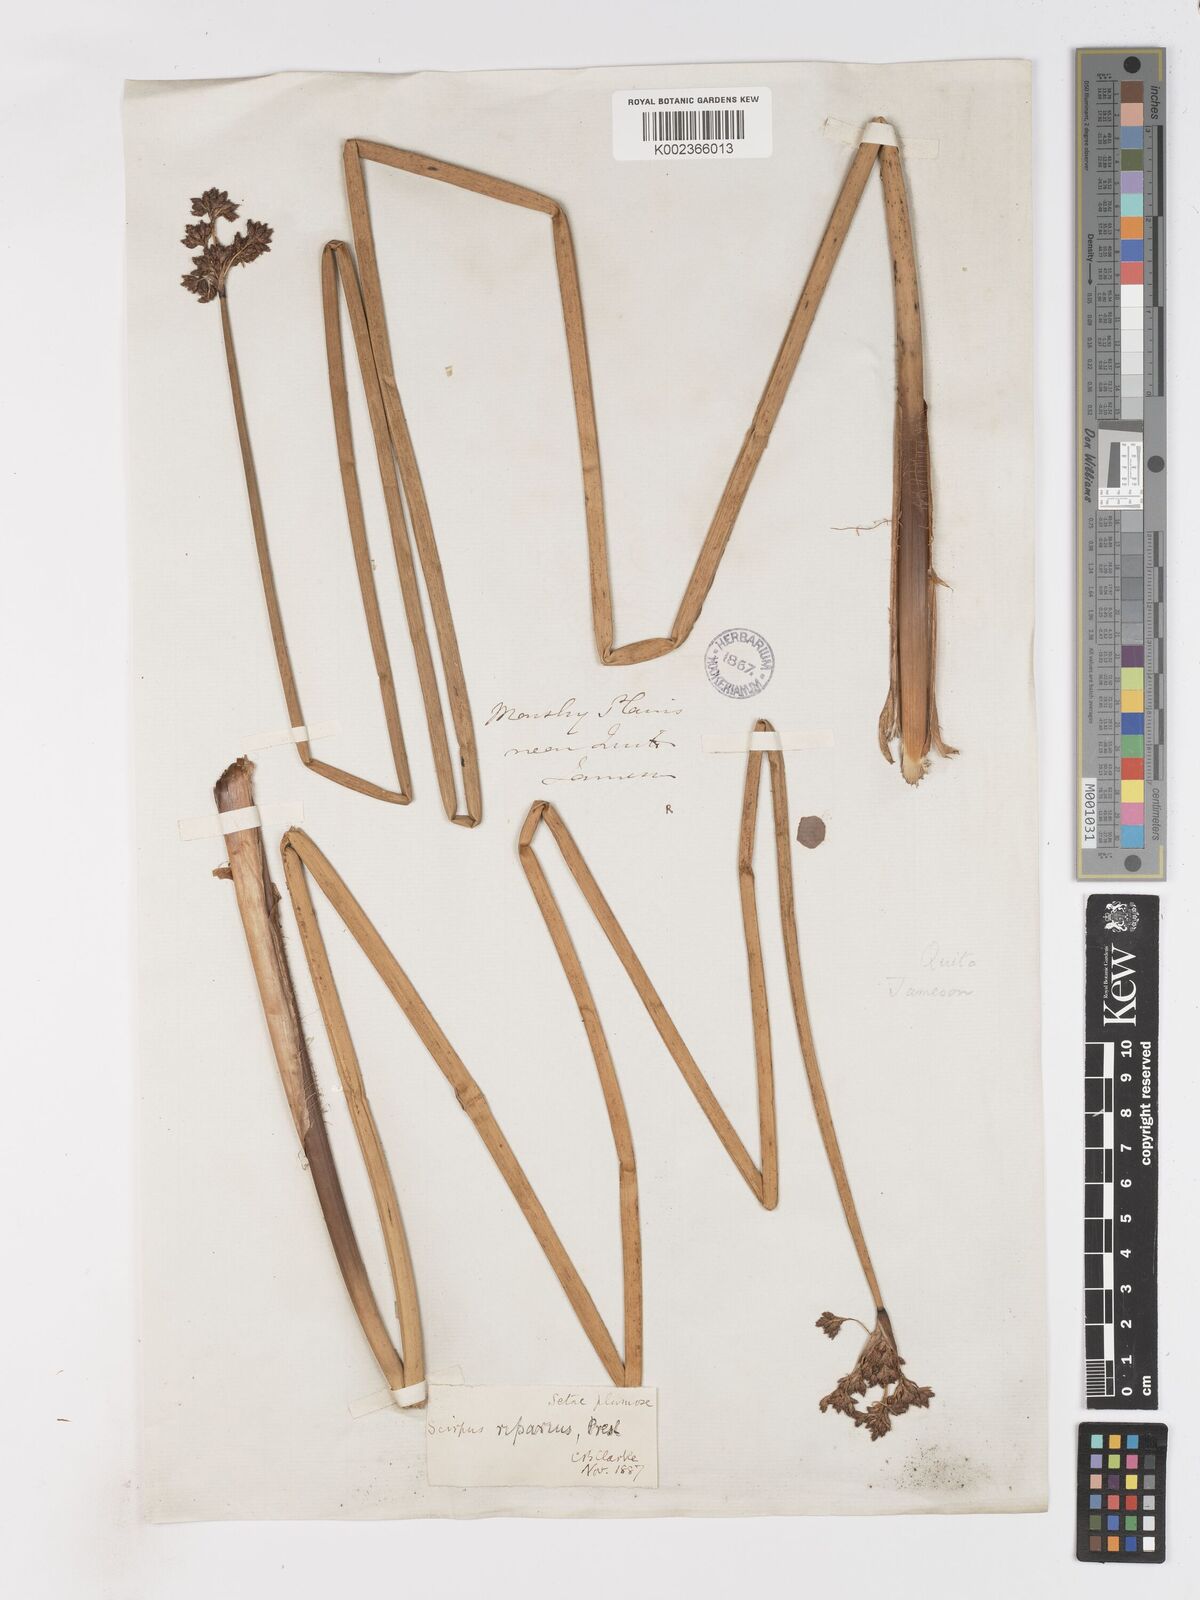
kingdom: Plantae
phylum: Tracheophyta
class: Liliopsida
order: Poales
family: Cyperaceae
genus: Schoenoplectus
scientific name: Schoenoplectus californicus
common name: California bulrush
